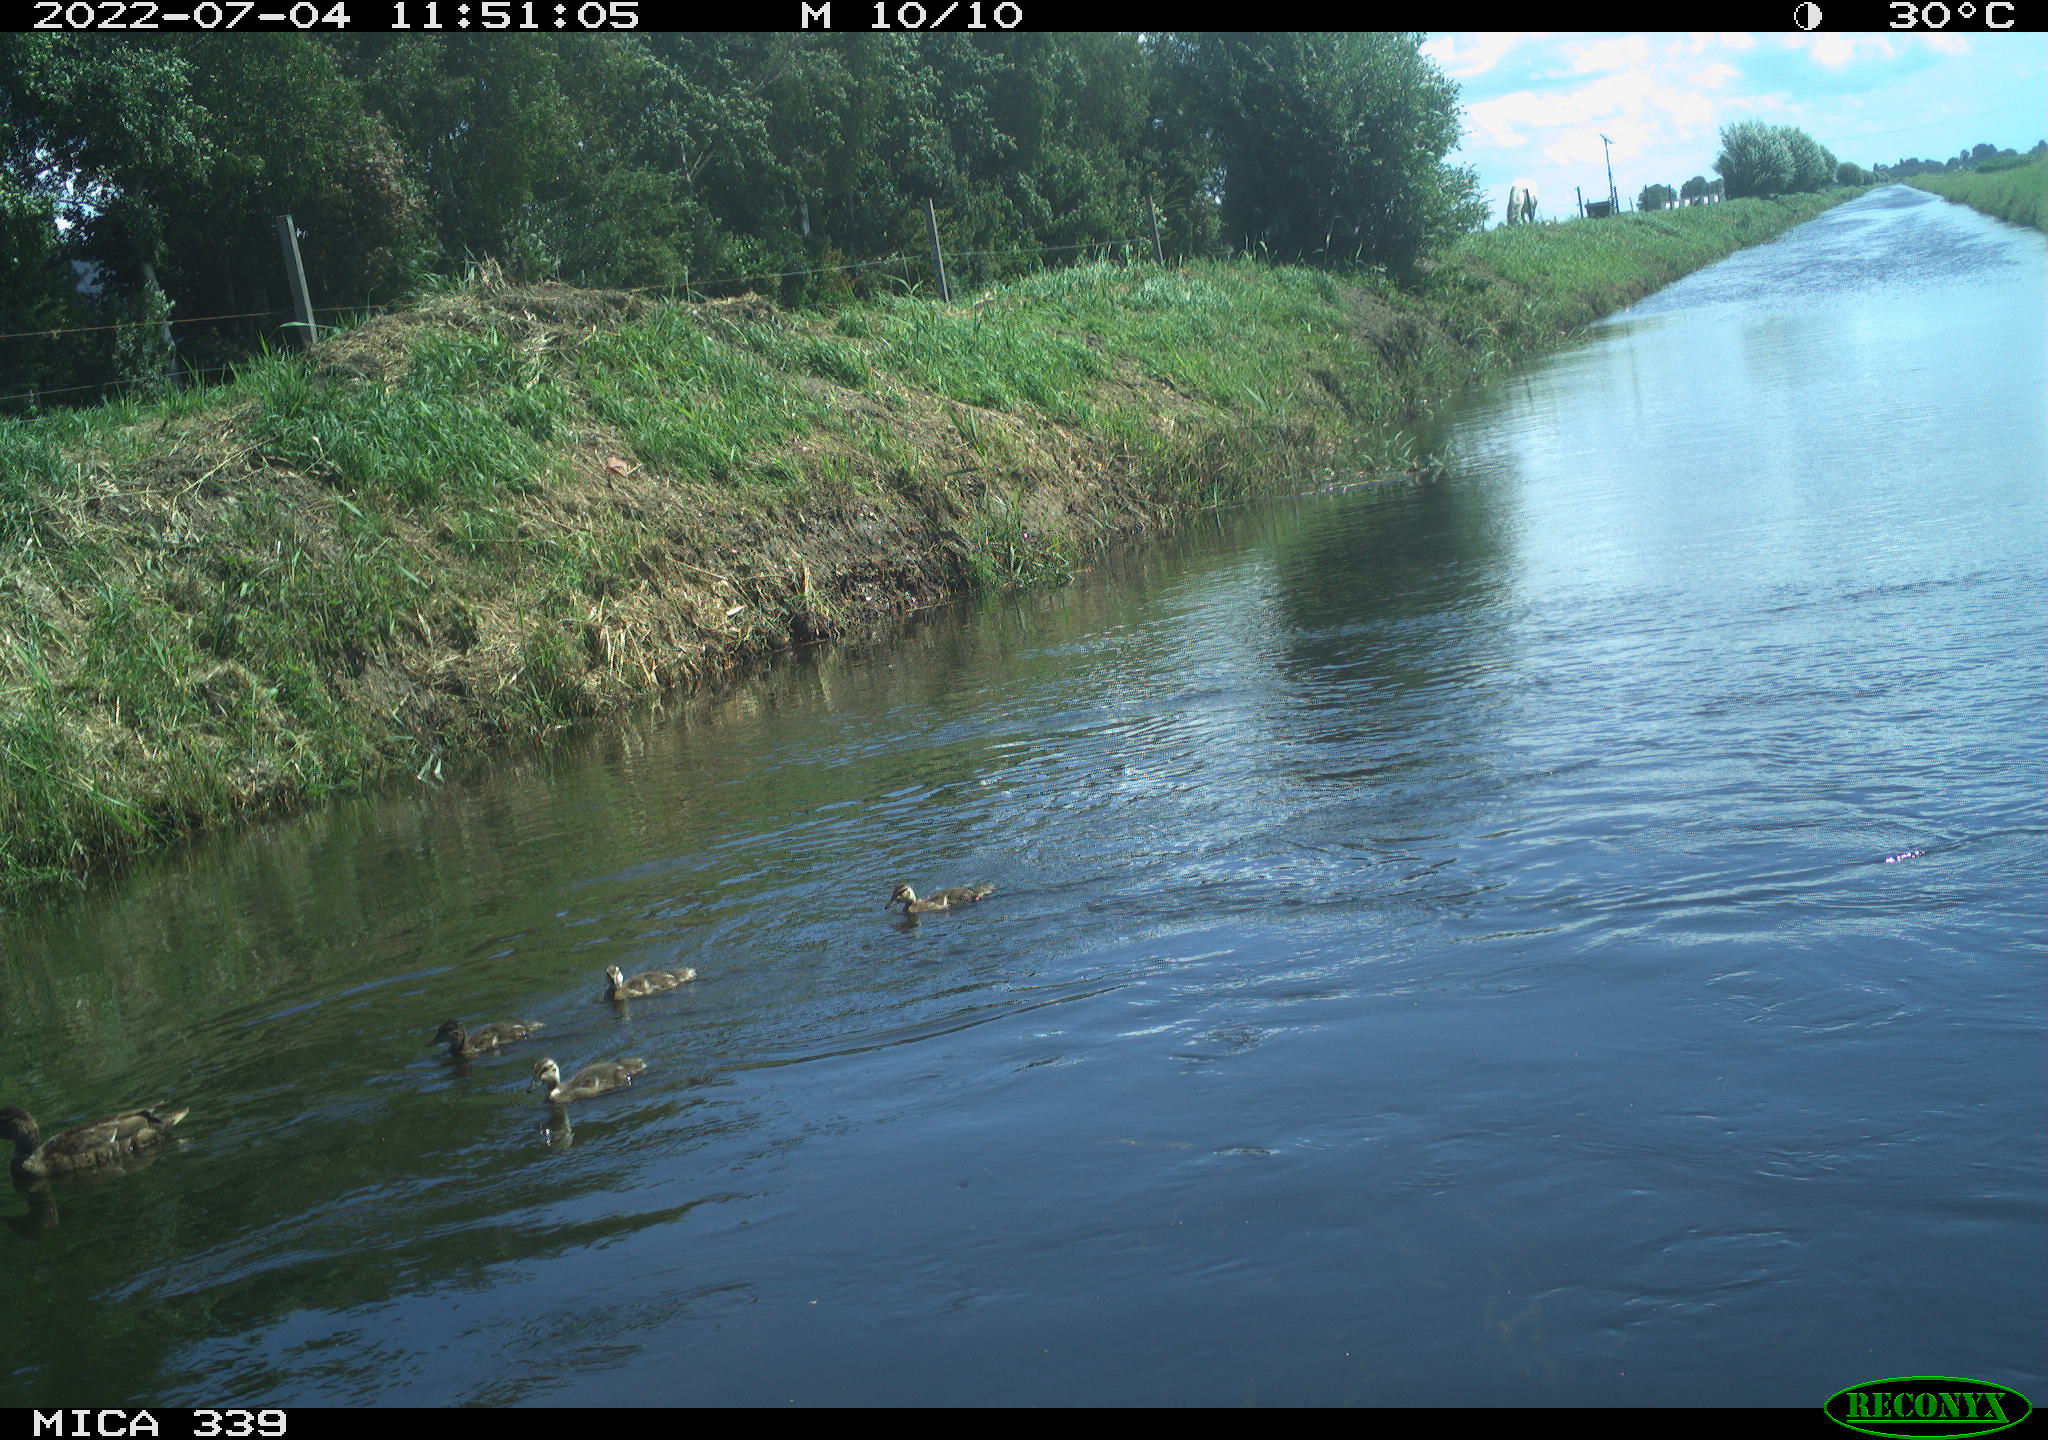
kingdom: Animalia
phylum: Chordata
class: Aves
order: Anseriformes
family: Anatidae
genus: Anas
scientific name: Anas platyrhynchos
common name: Mallard
